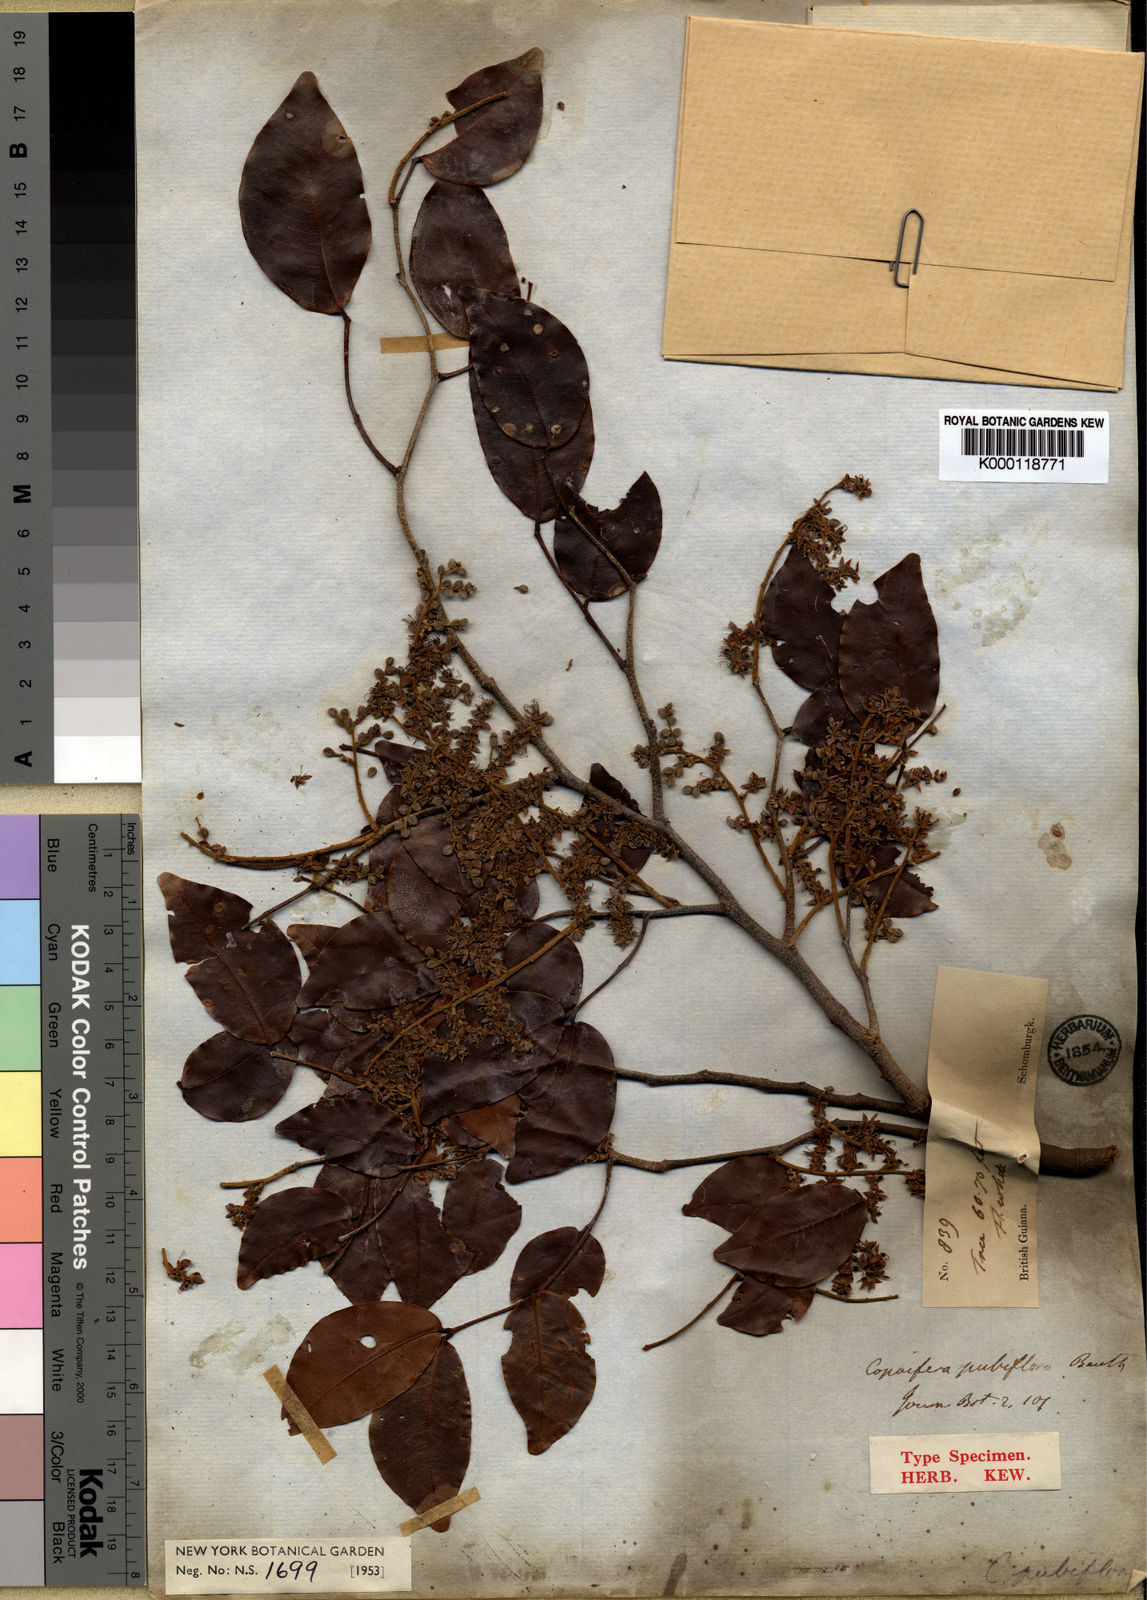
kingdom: Plantae
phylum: Tracheophyta
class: Magnoliopsida
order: Fabales
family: Fabaceae
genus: Copaifera
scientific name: Copaifera pubiflora
